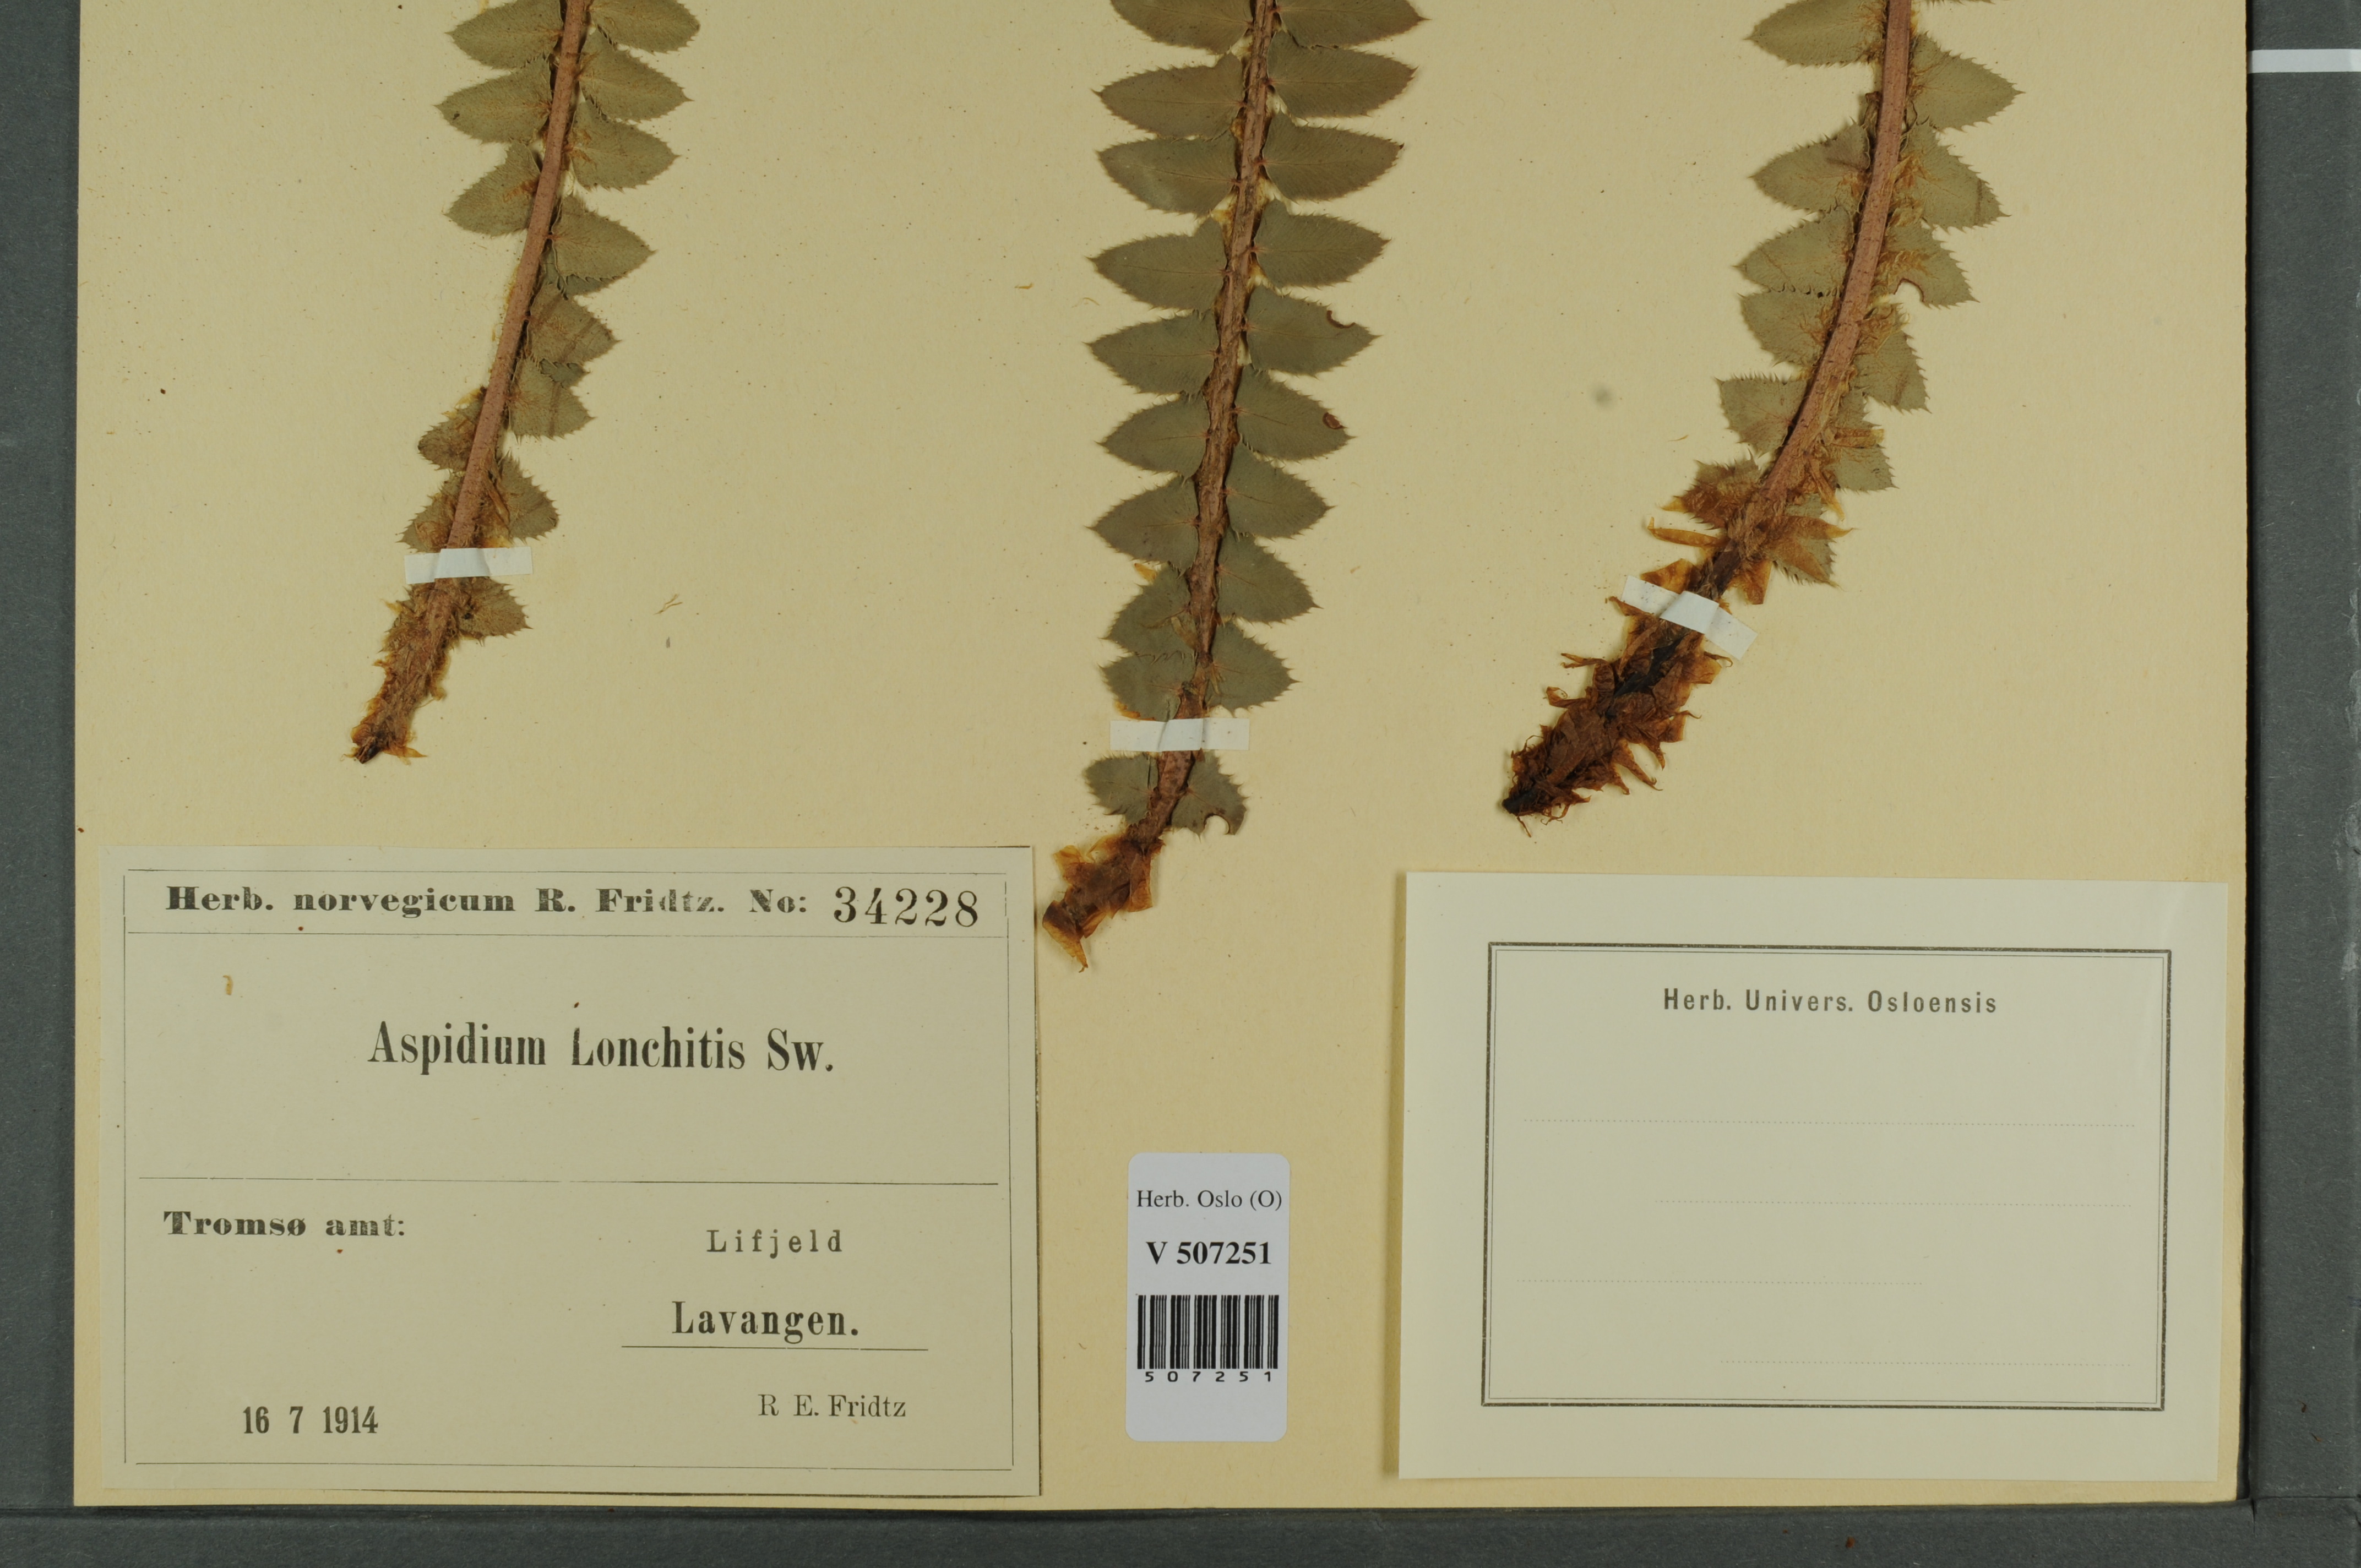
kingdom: Plantae
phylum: Tracheophyta
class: Polypodiopsida
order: Polypodiales
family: Dryopteridaceae
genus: Polystichum
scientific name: Polystichum lonchitis
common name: Holly fern
